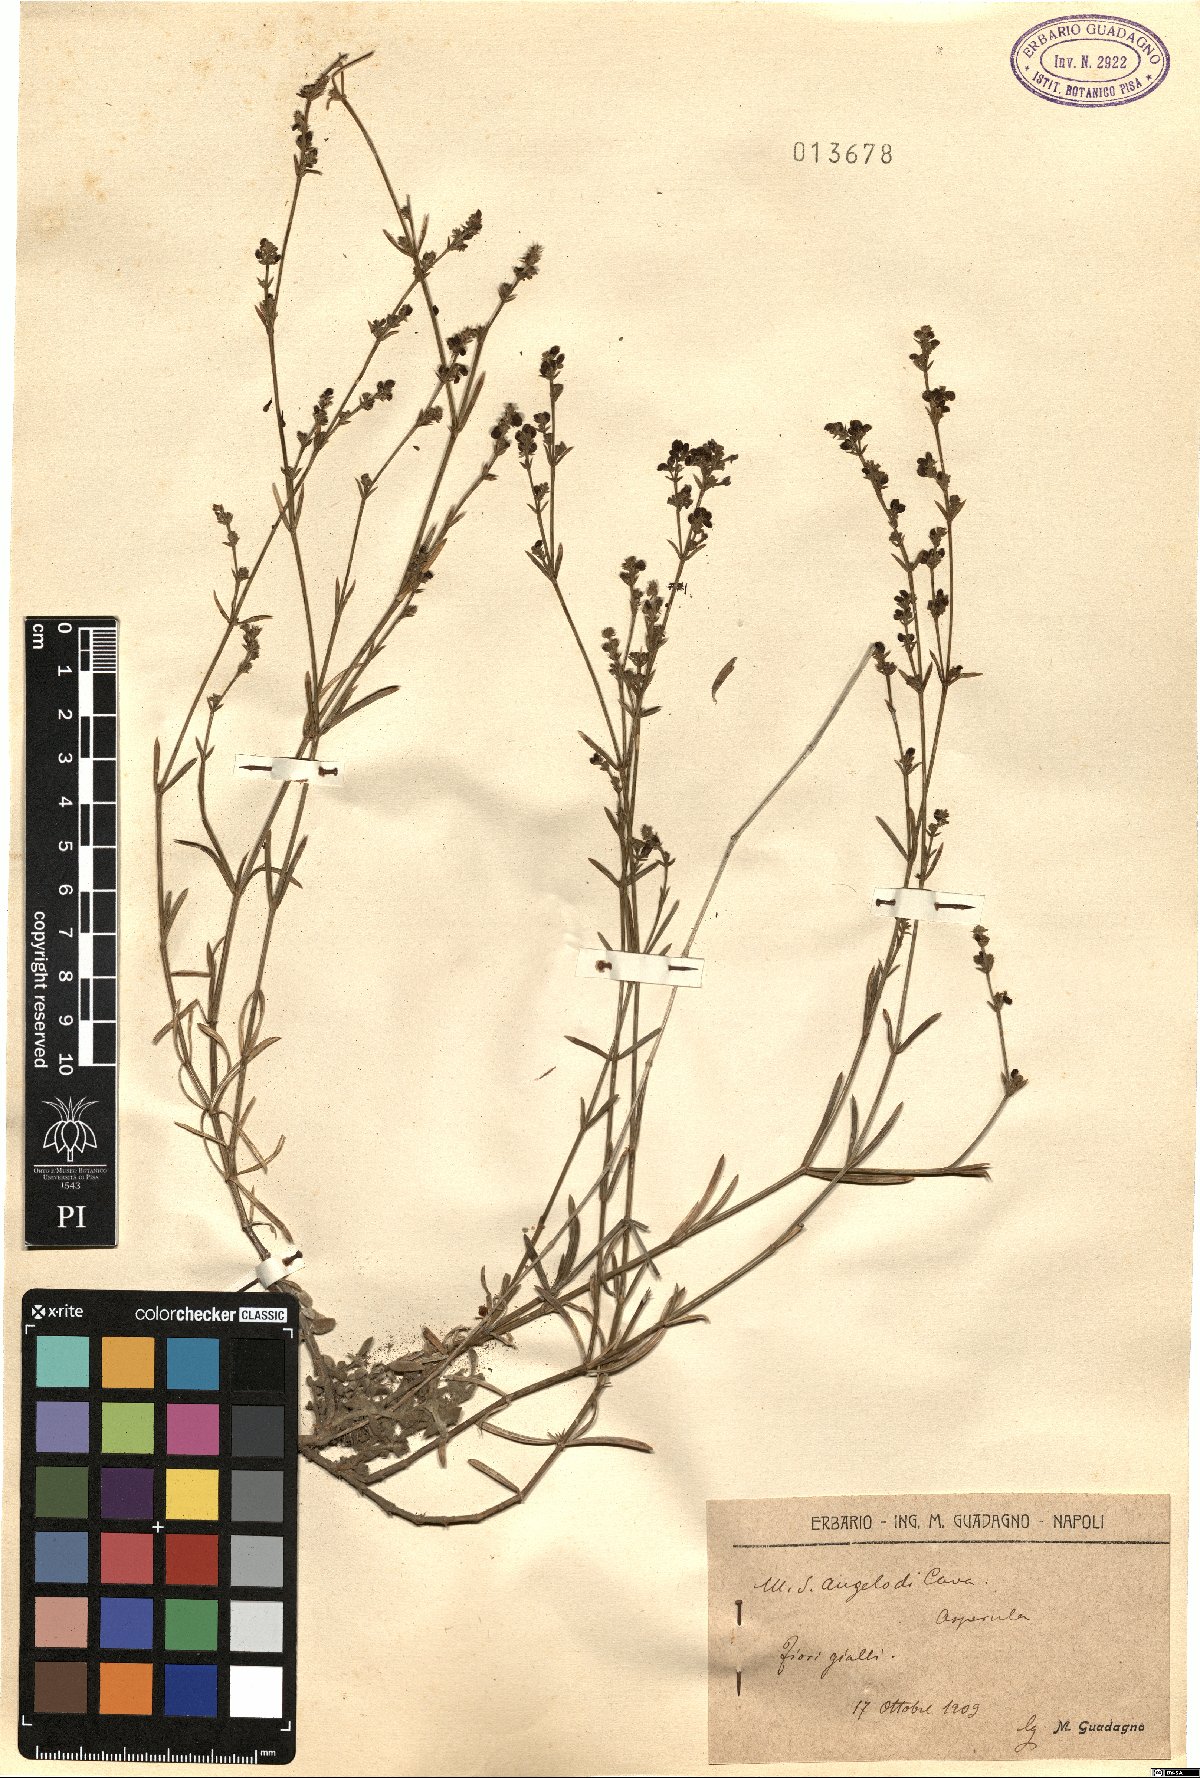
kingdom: Plantae
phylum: Tracheophyta
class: Magnoliopsida
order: Gentianales
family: Rubiaceae
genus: Asperula
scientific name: Asperula
